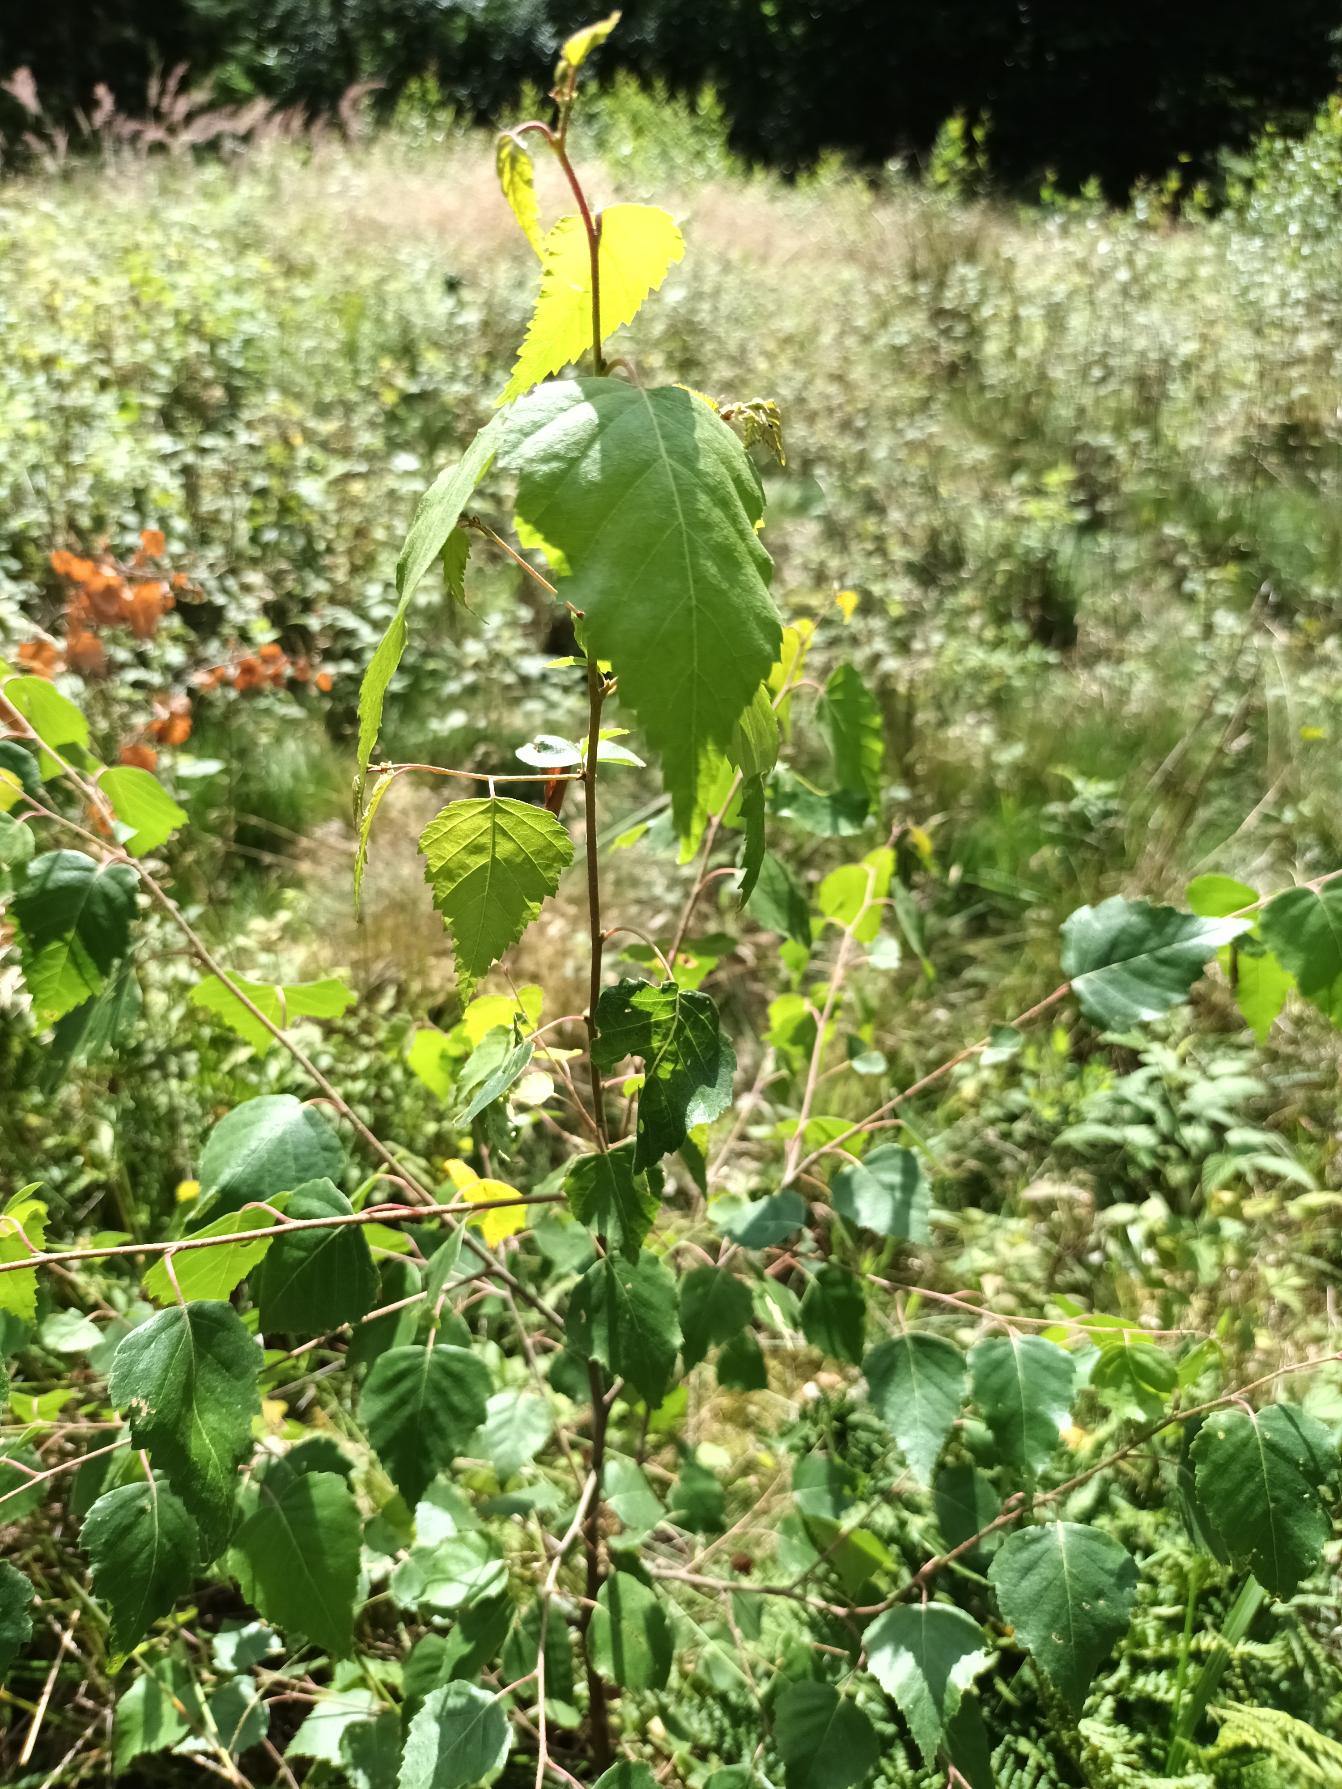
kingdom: Plantae
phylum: Tracheophyta
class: Magnoliopsida
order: Fagales
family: Betulaceae
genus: Betula
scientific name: Betula pendula
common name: Vorte-birk
